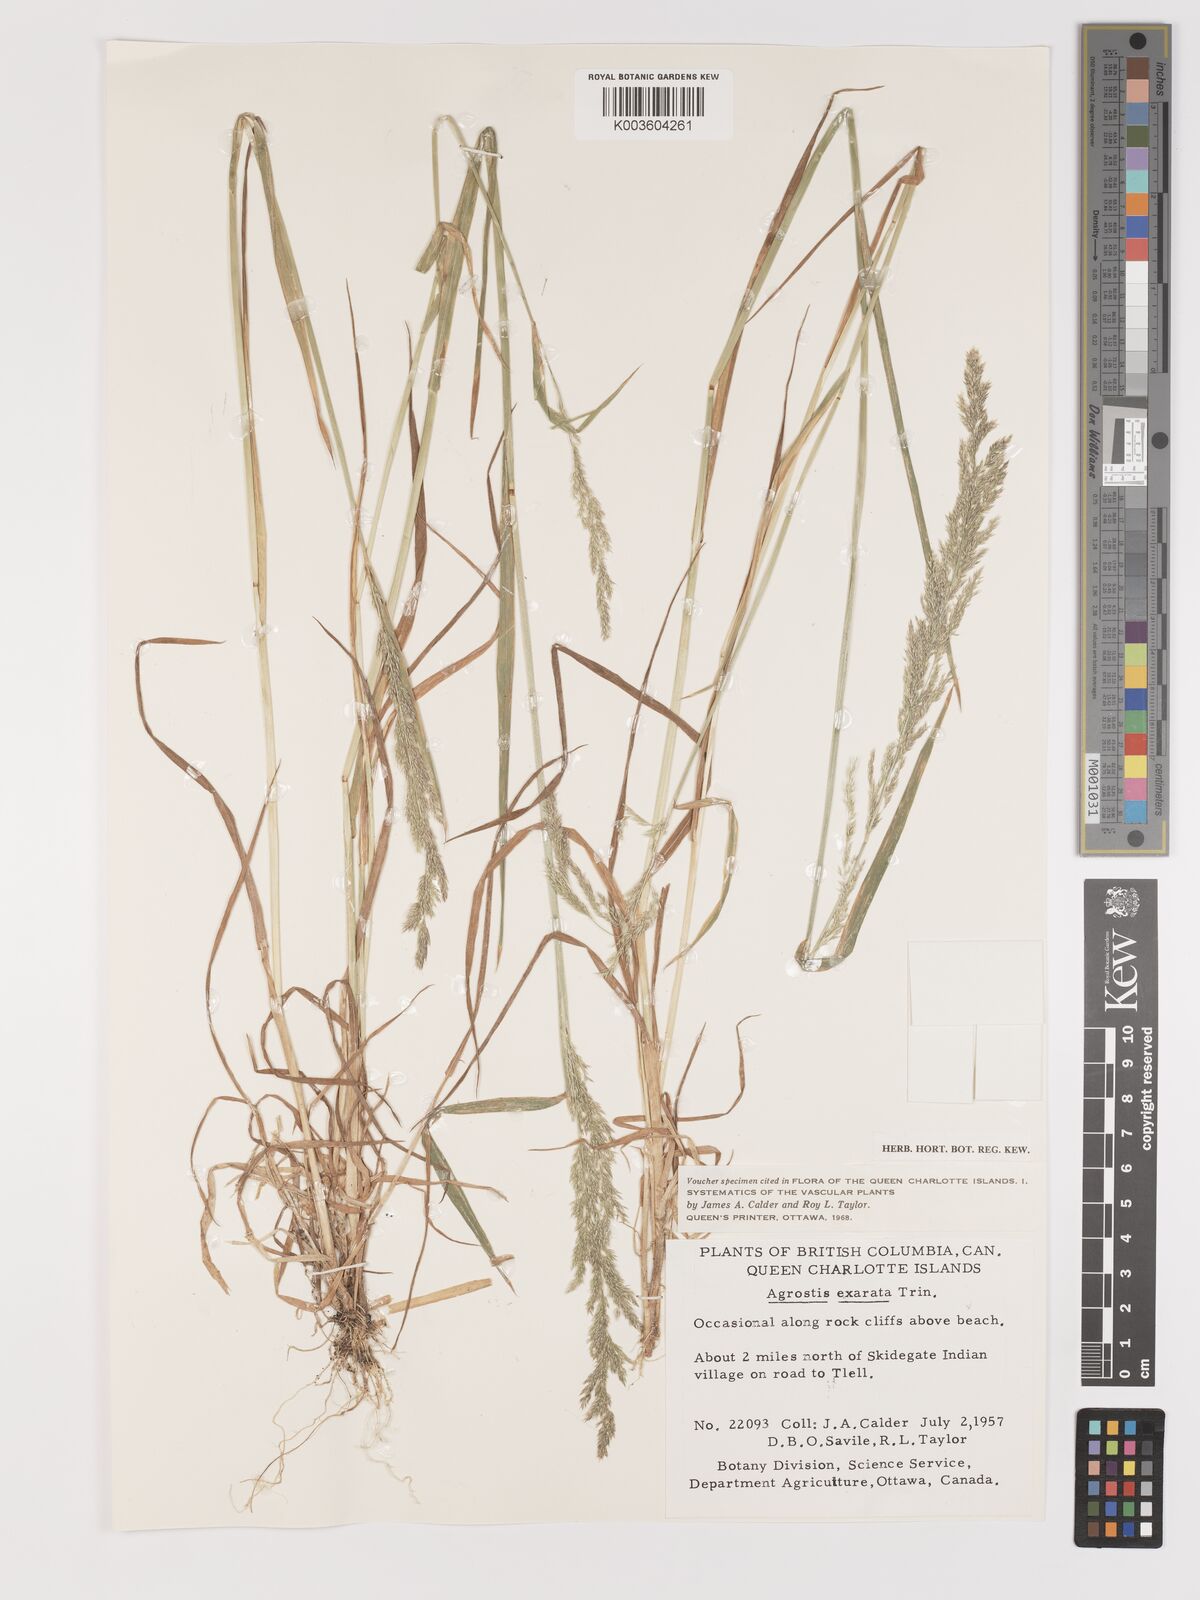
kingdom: Plantae
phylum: Tracheophyta
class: Liliopsida
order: Poales
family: Poaceae
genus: Agrostis
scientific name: Agrostis exarata
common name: Spike bent
